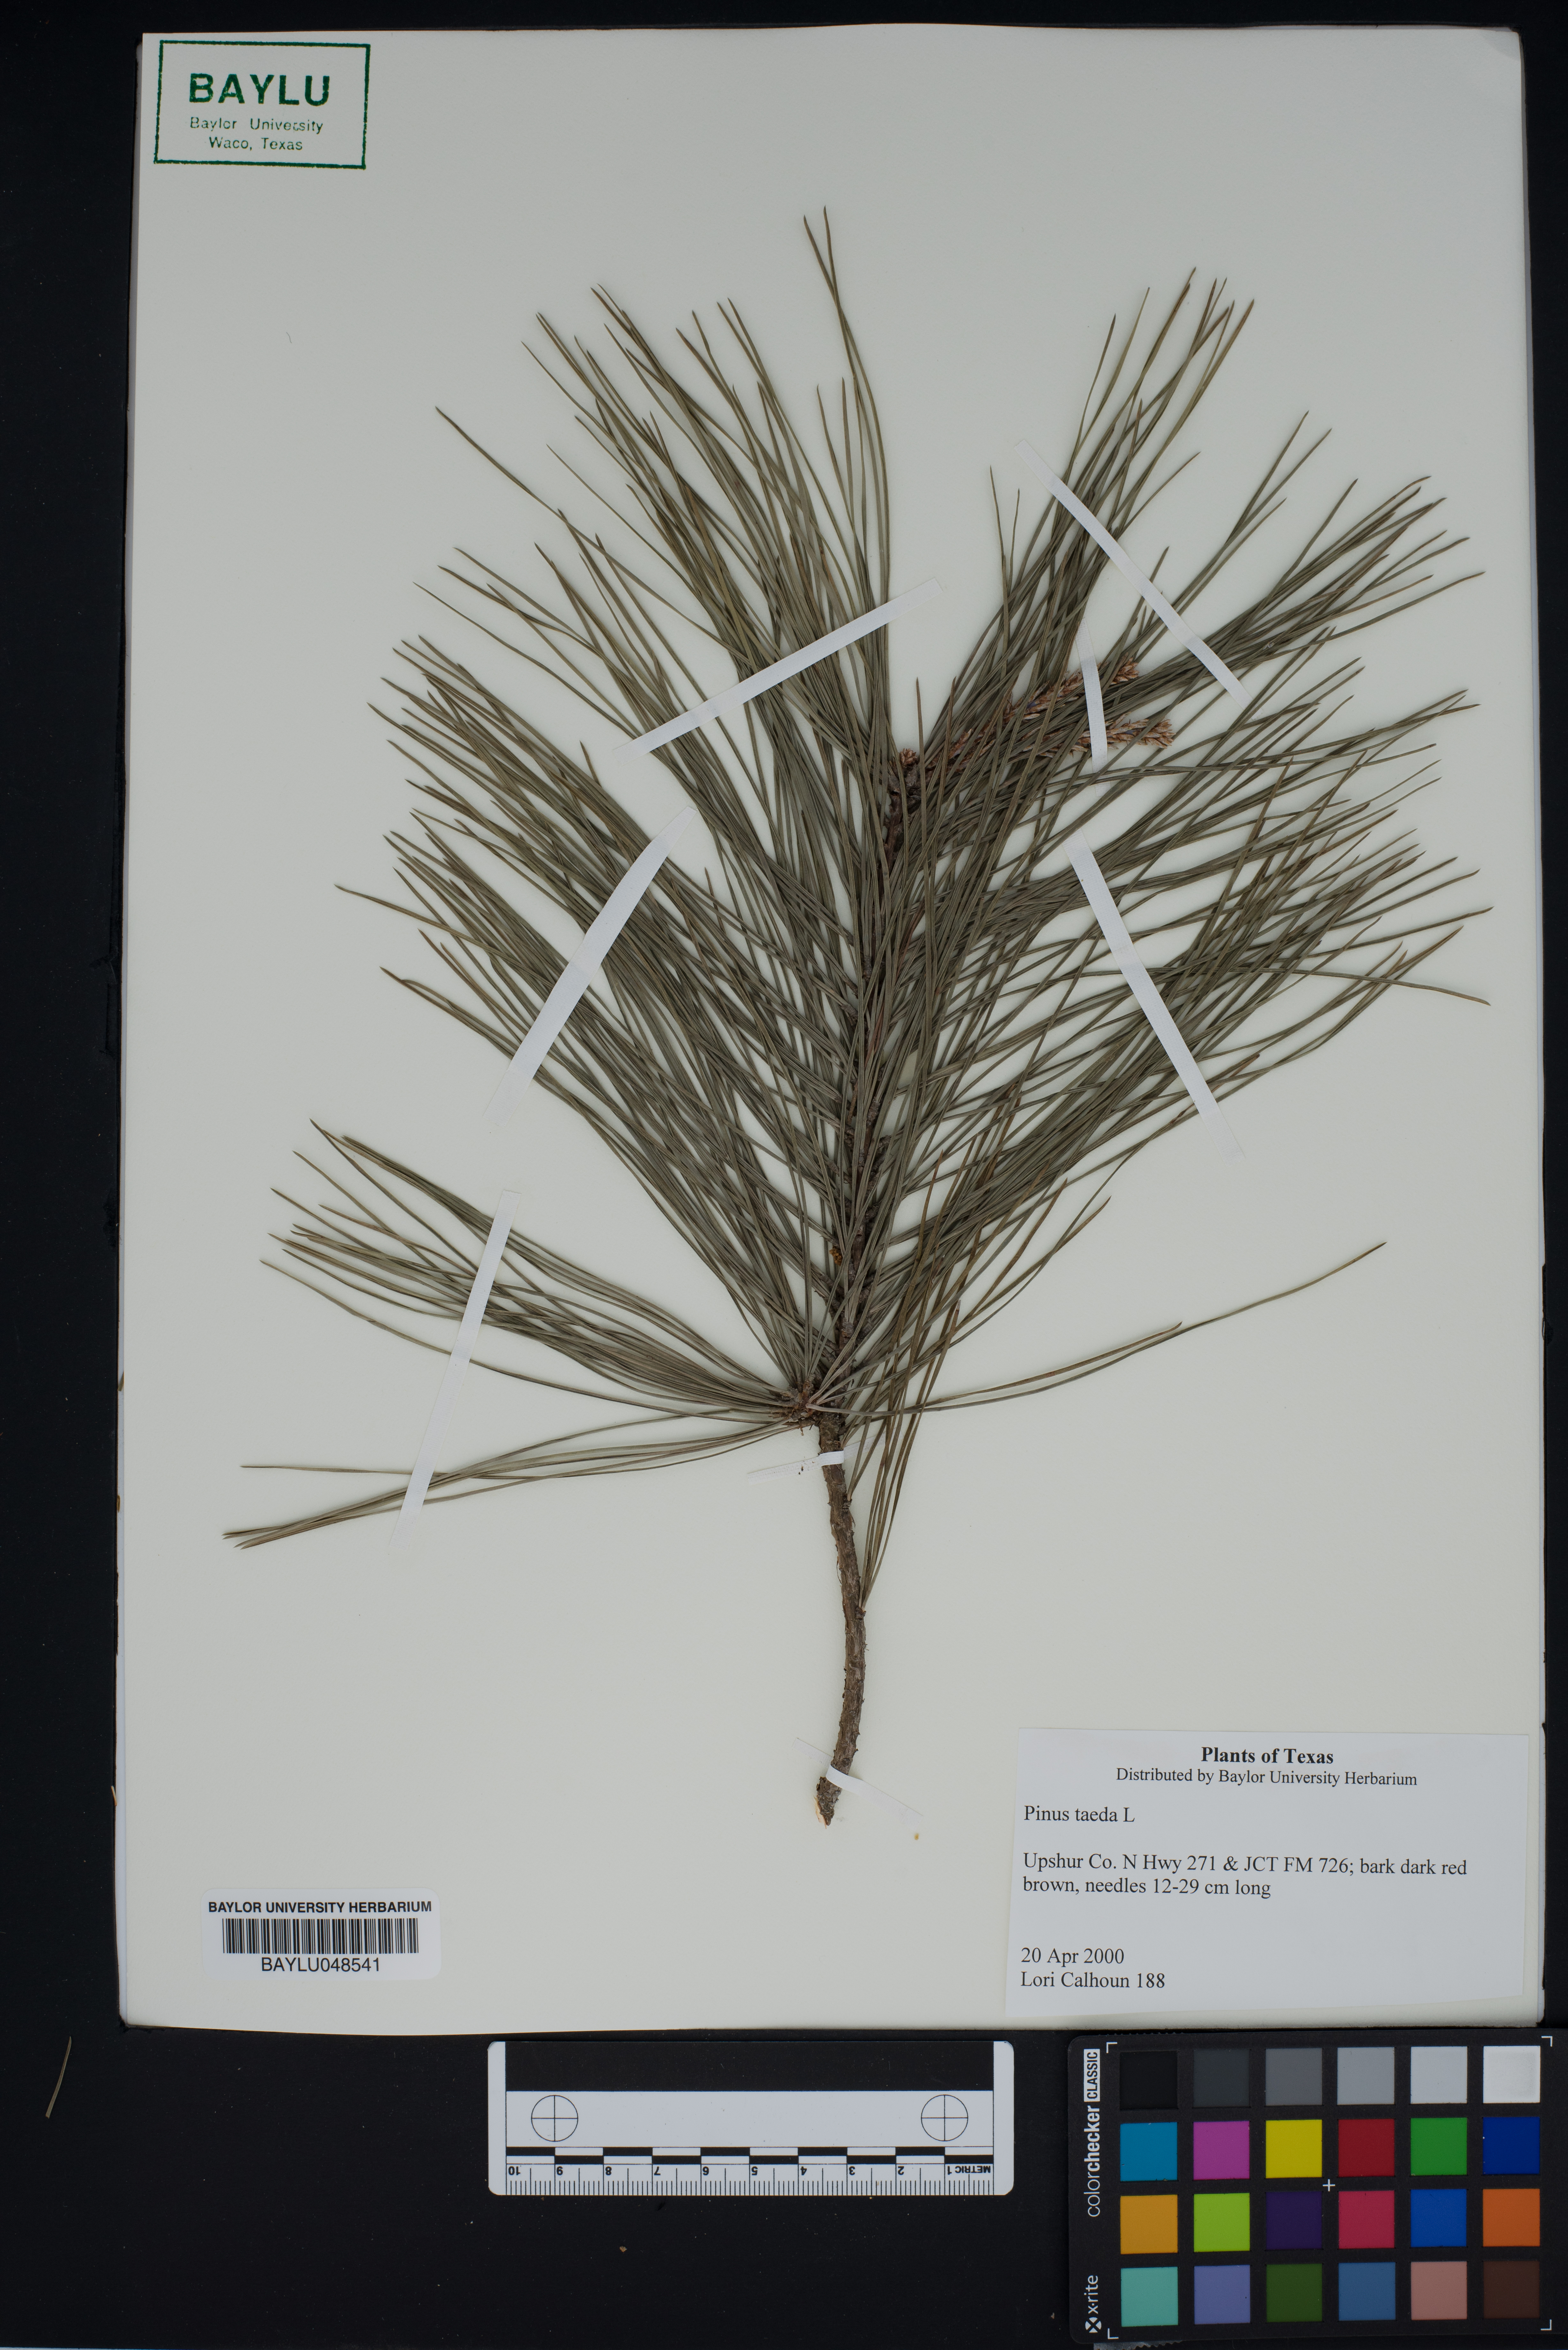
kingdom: Plantae
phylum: Tracheophyta
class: Pinopsida
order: Pinales
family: Pinaceae
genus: Pinus
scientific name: Pinus taeda
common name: Loblolly pine
